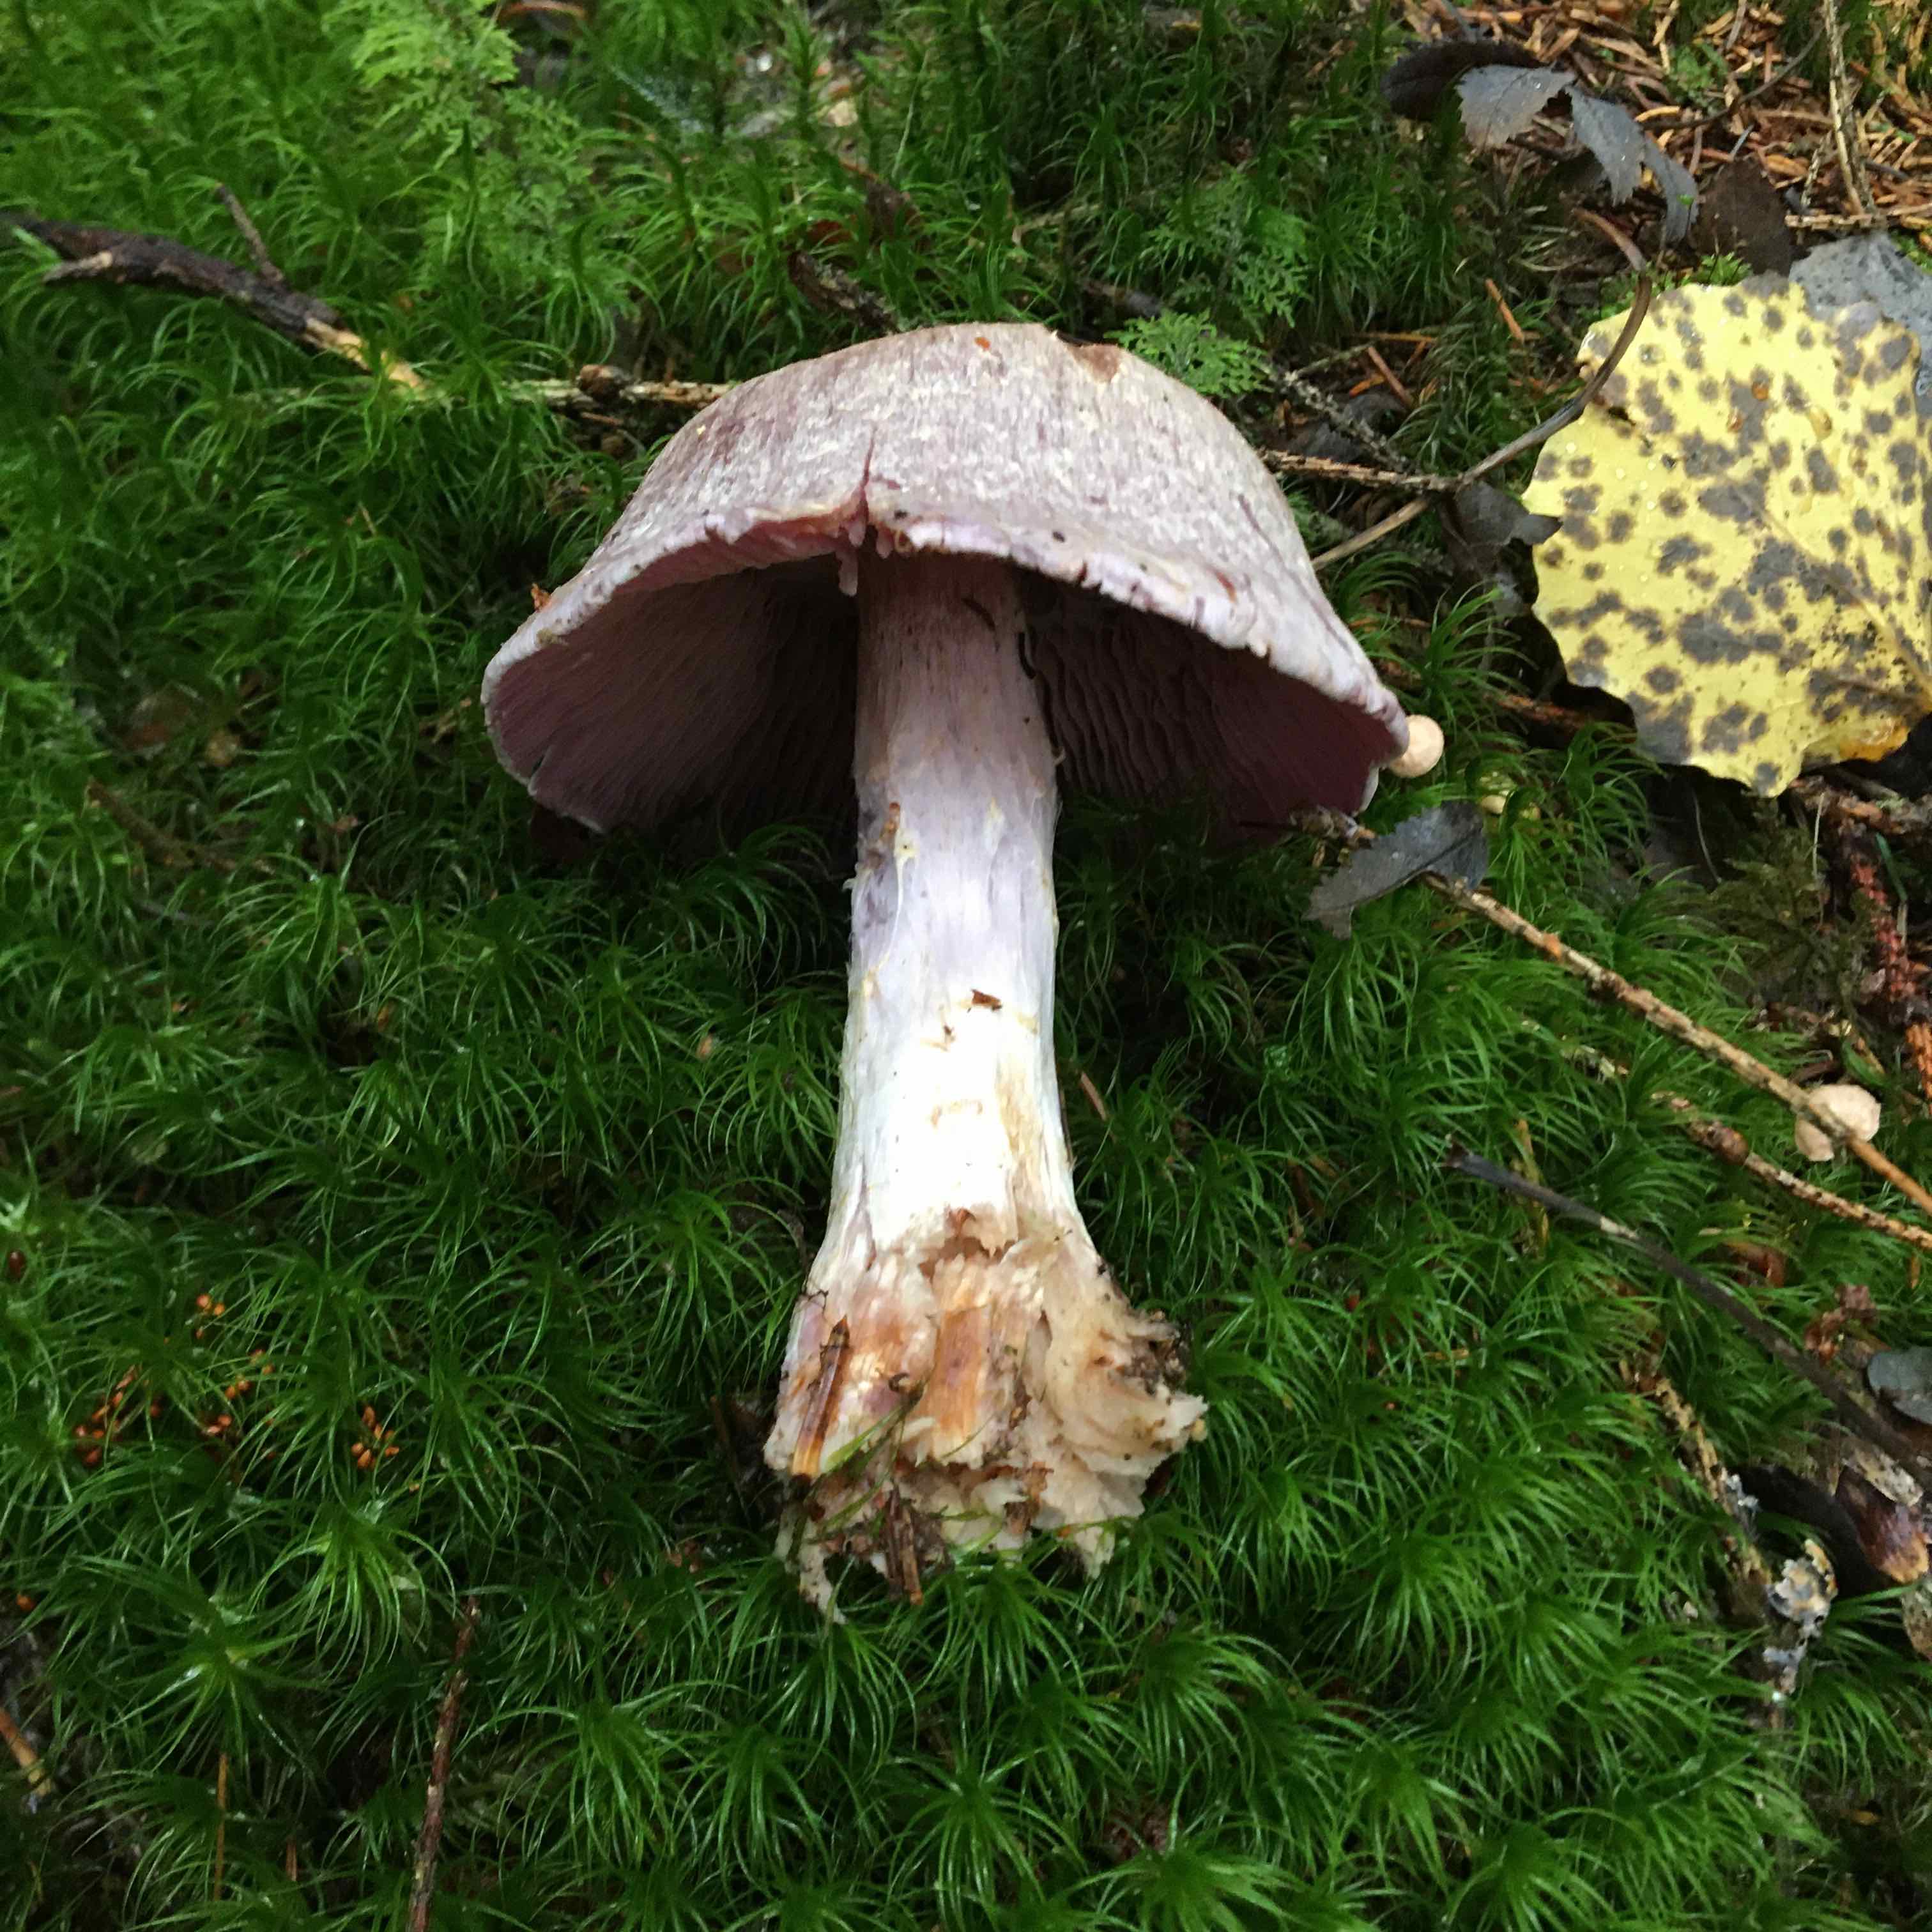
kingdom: Fungi
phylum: Basidiomycota
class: Agaricomycetes
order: Agaricales
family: Cortinariaceae
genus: Cortinarius
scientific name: Cortinarius camphoratus
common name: stinkende slørhat
